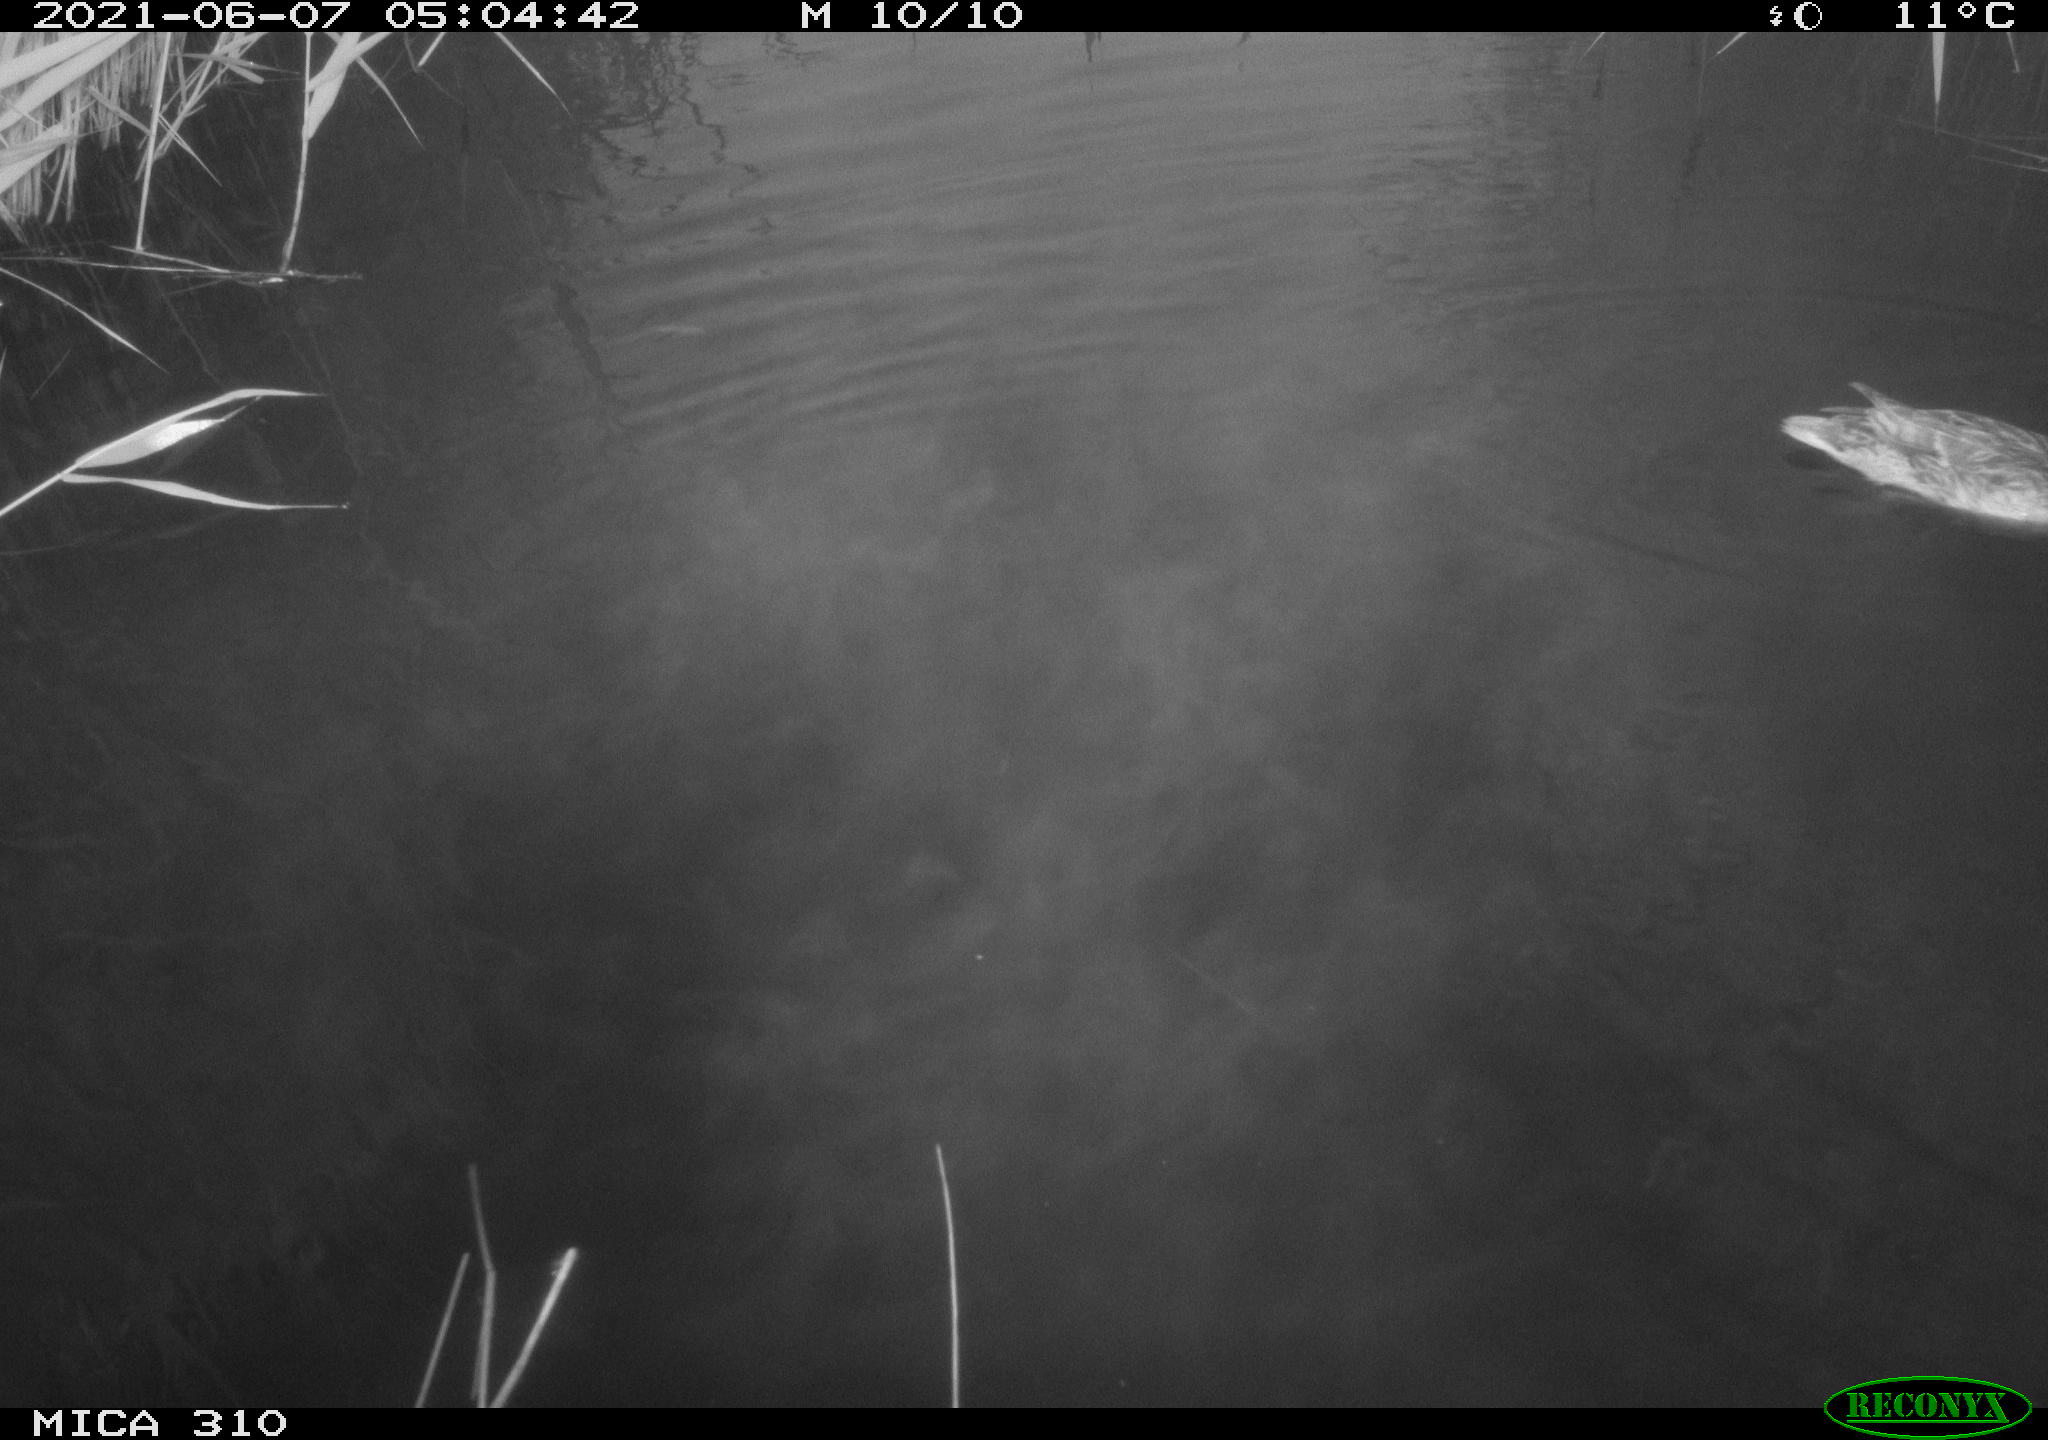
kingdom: Animalia
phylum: Chordata
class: Aves
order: Anseriformes
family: Anatidae
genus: Anas
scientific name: Anas
